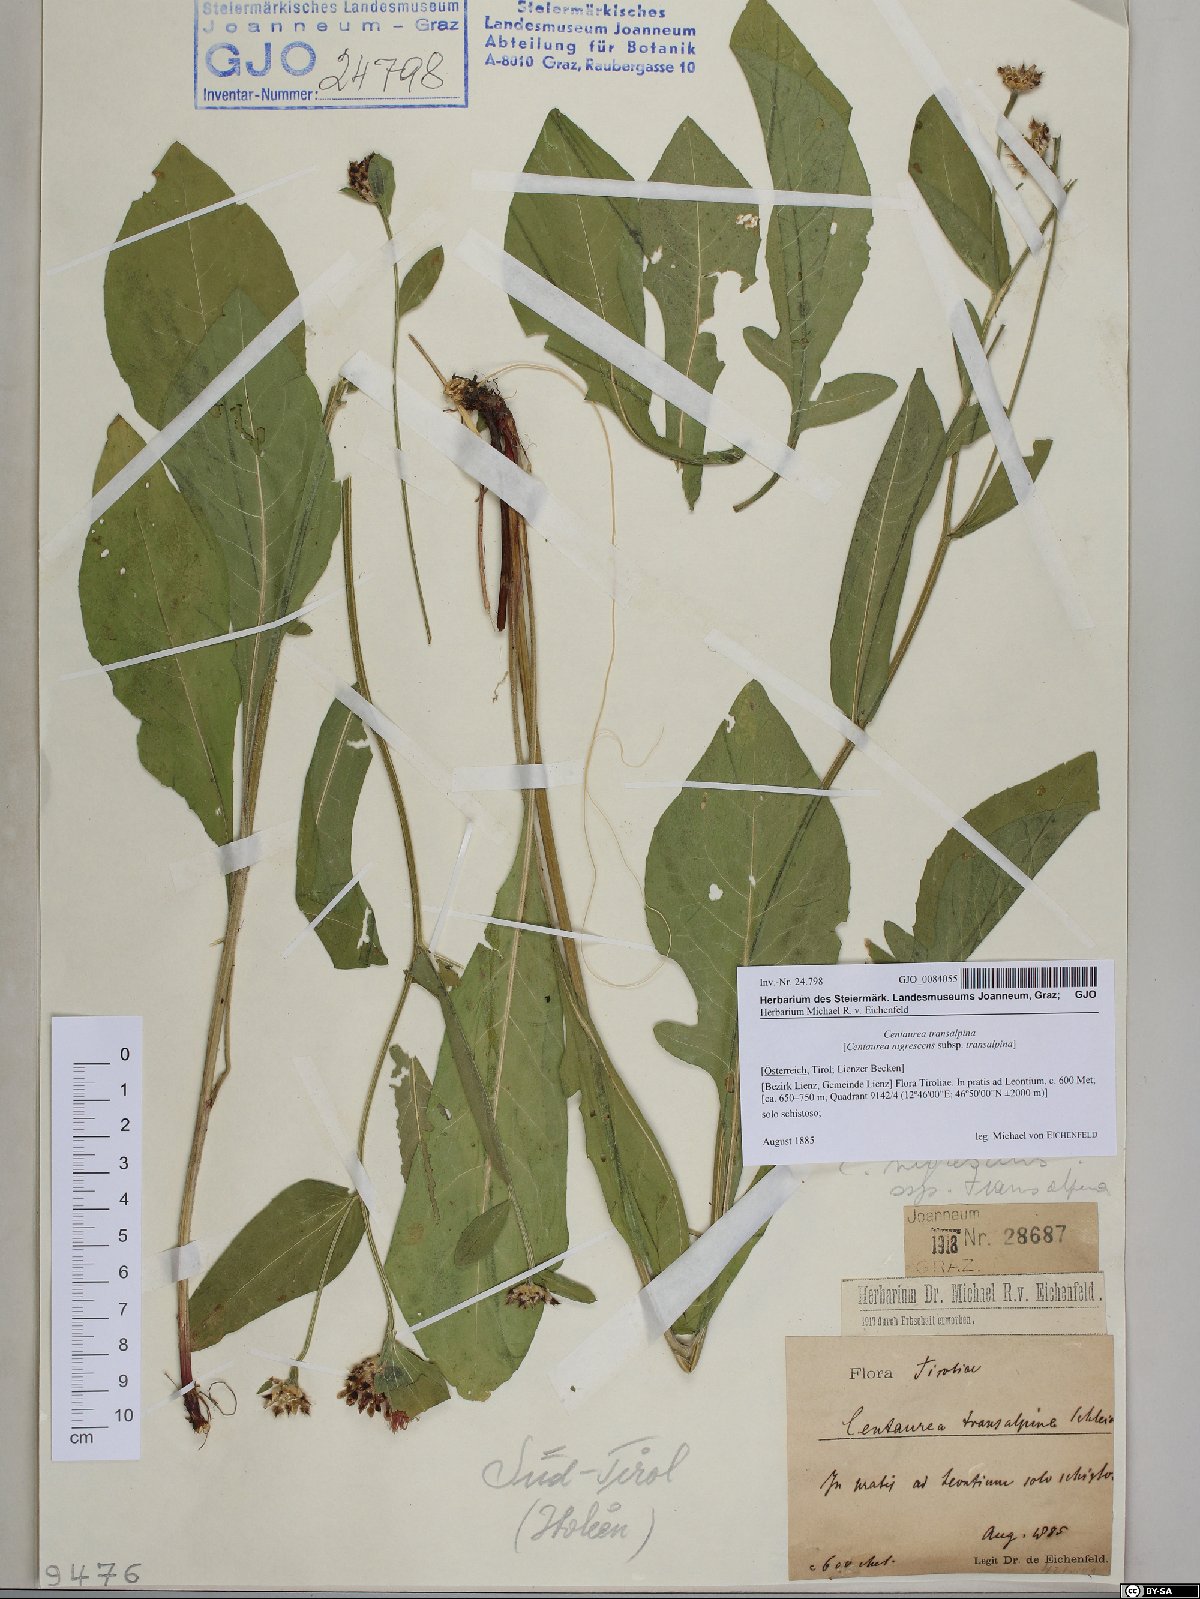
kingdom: Plantae
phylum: Tracheophyta
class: Magnoliopsida
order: Asterales
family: Asteraceae
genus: Centaurea
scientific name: Centaurea nigrescens
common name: Tyrol knapweed
